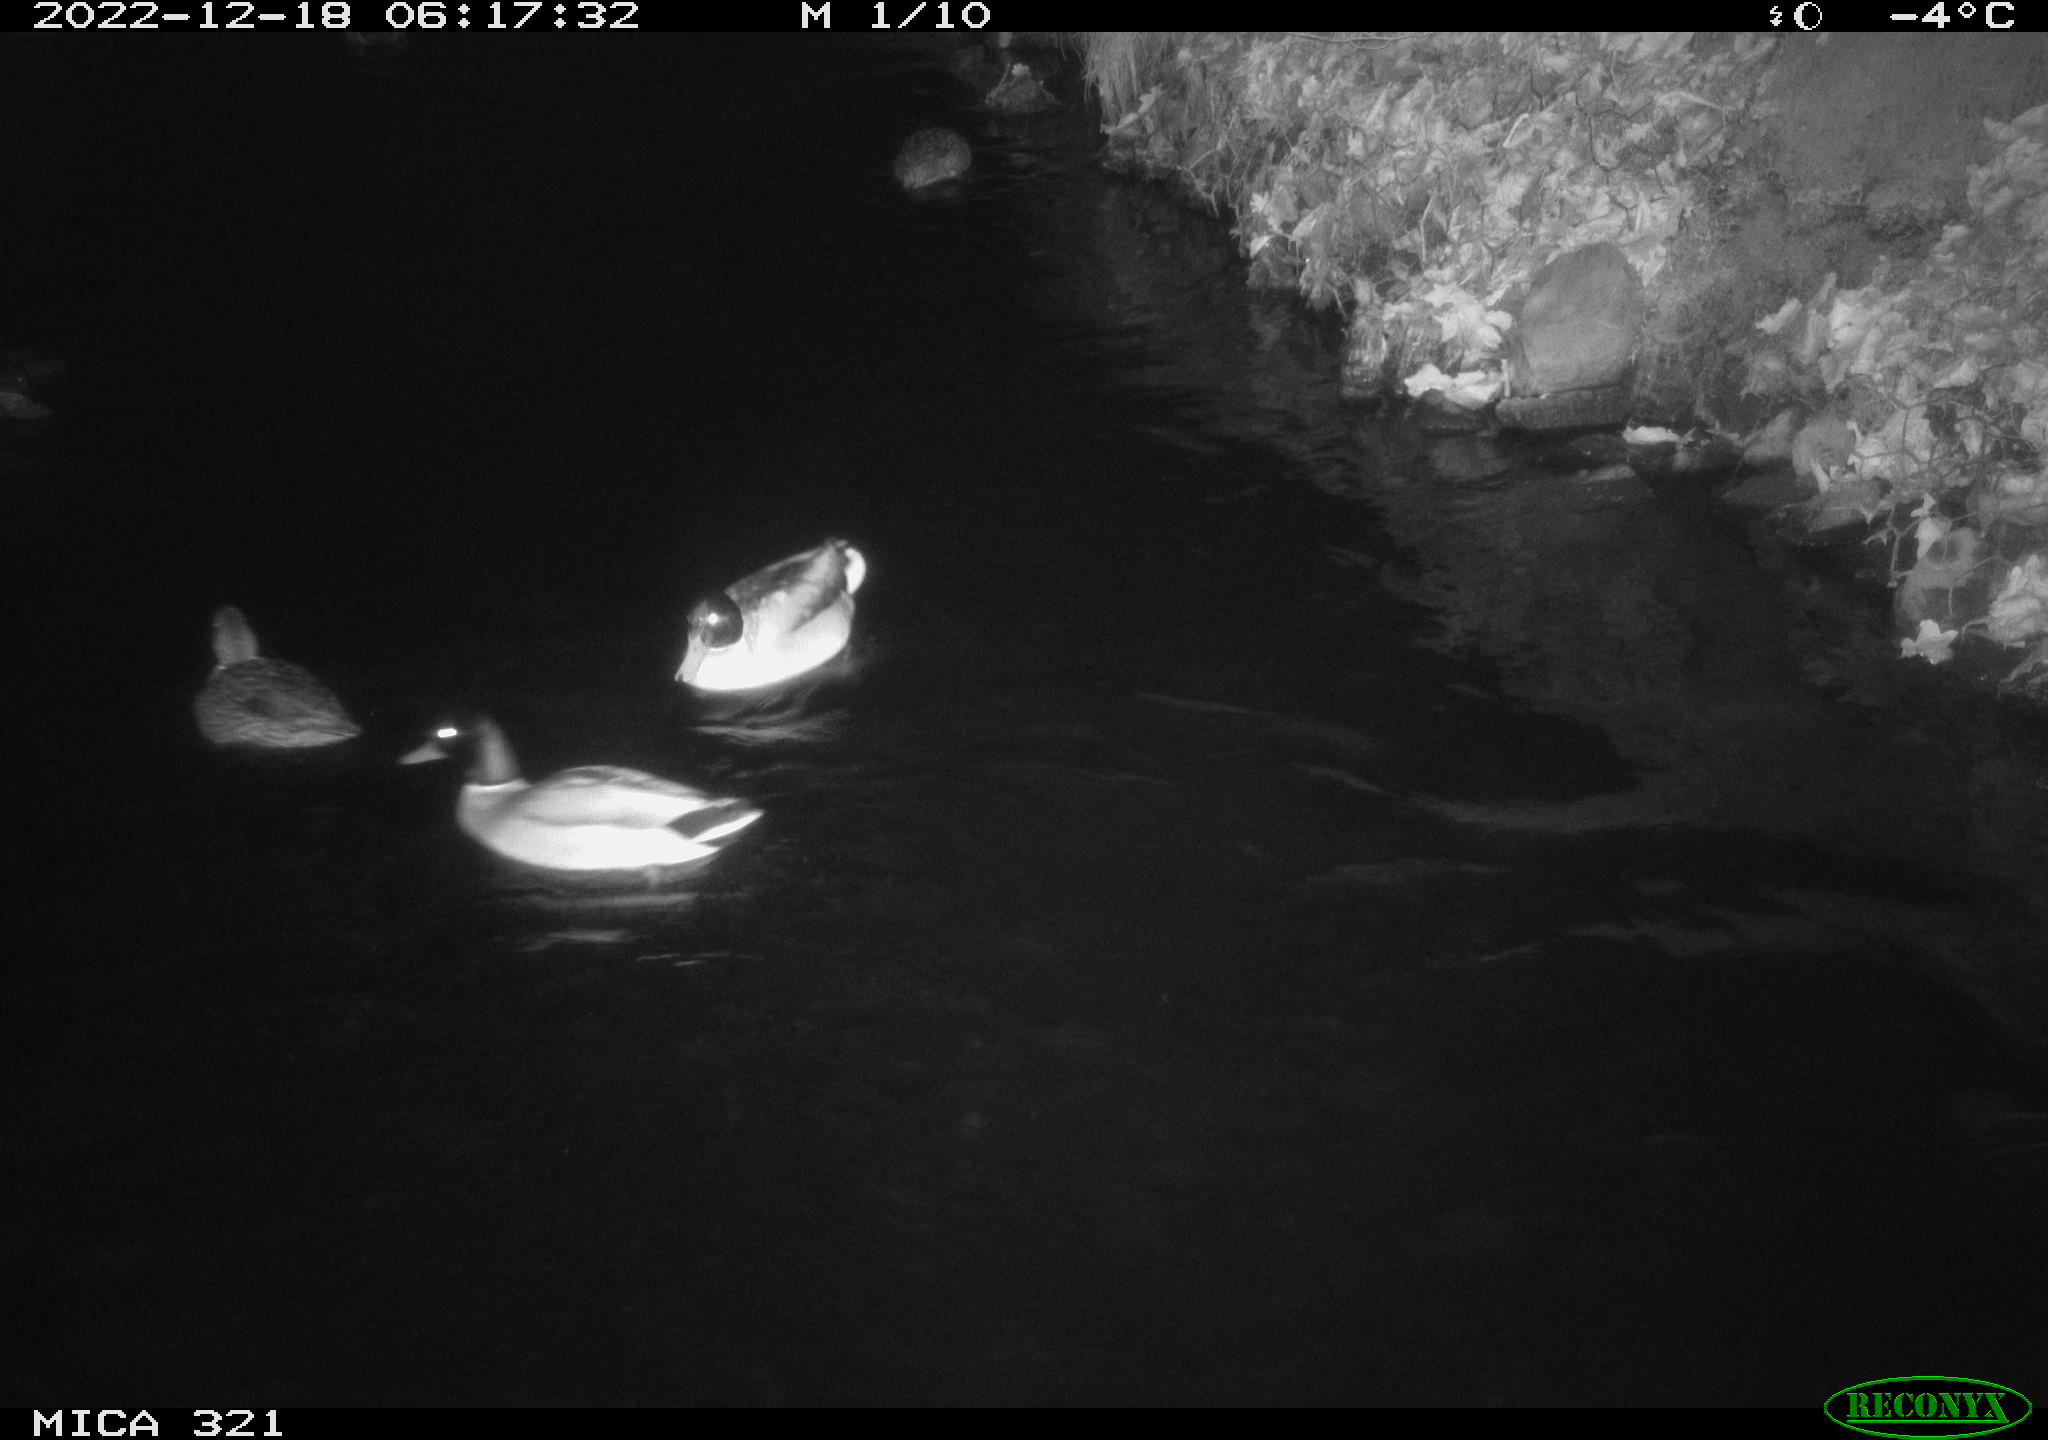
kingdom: Animalia
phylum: Chordata
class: Aves
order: Anseriformes
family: Anatidae
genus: Anas
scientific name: Anas
